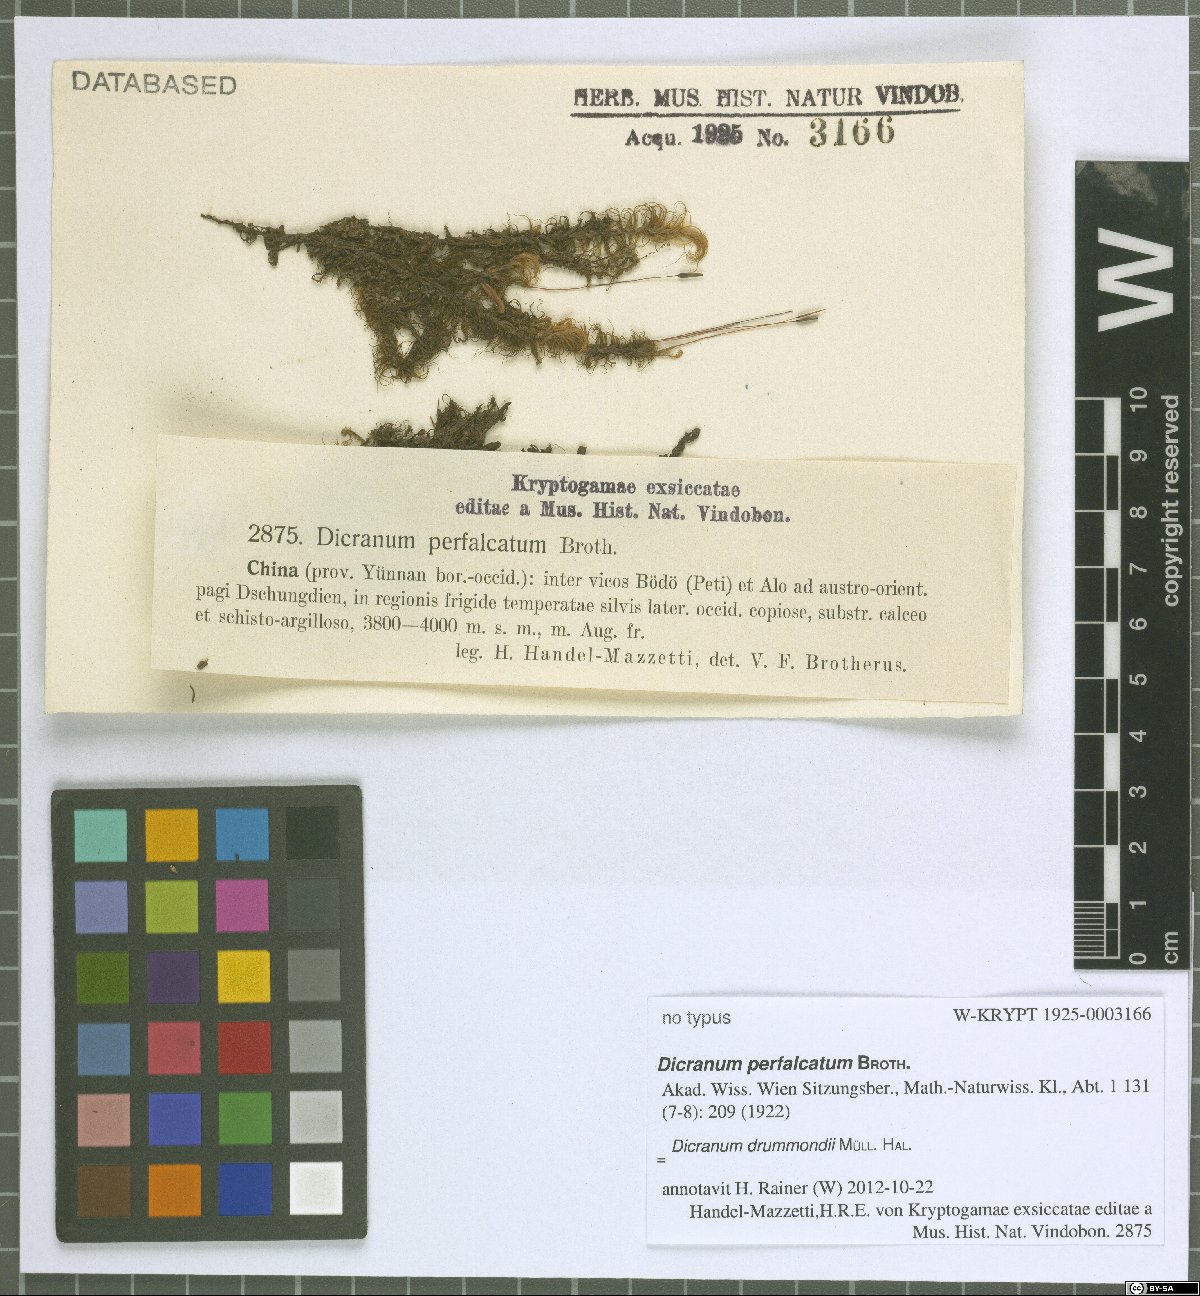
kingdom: Plantae
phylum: Bryophyta
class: Bryopsida
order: Dicranales
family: Dicranaceae
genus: Dicranum
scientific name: Dicranum drummondii
